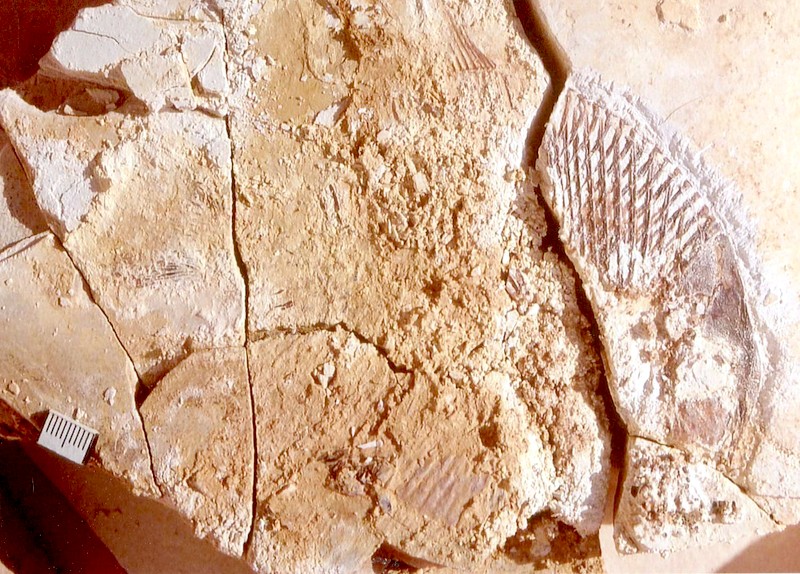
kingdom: Animalia
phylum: Chordata
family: Pycnodontidae
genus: Turbomesodon
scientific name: Turbomesodon relegans
